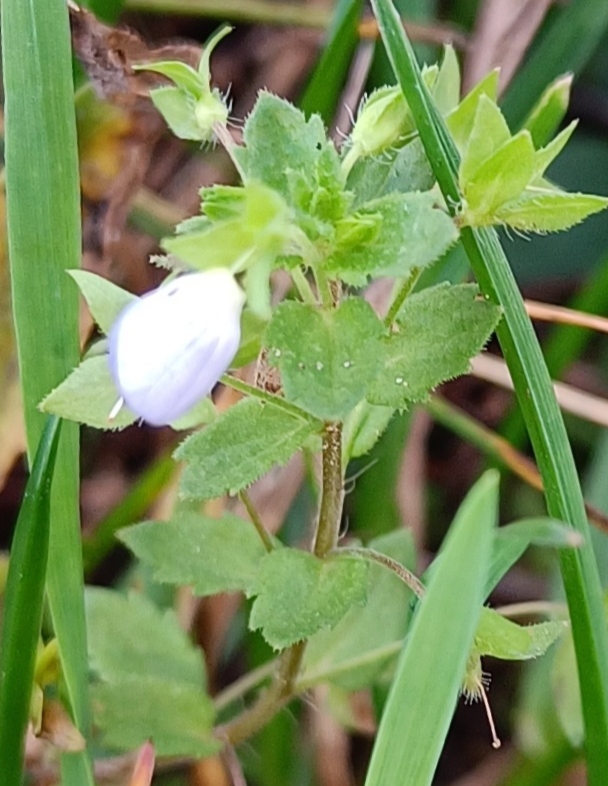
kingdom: Plantae
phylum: Tracheophyta
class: Magnoliopsida
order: Lamiales
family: Plantaginaceae
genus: Veronica
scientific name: Veronica persica
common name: Storkronet ærenpris
